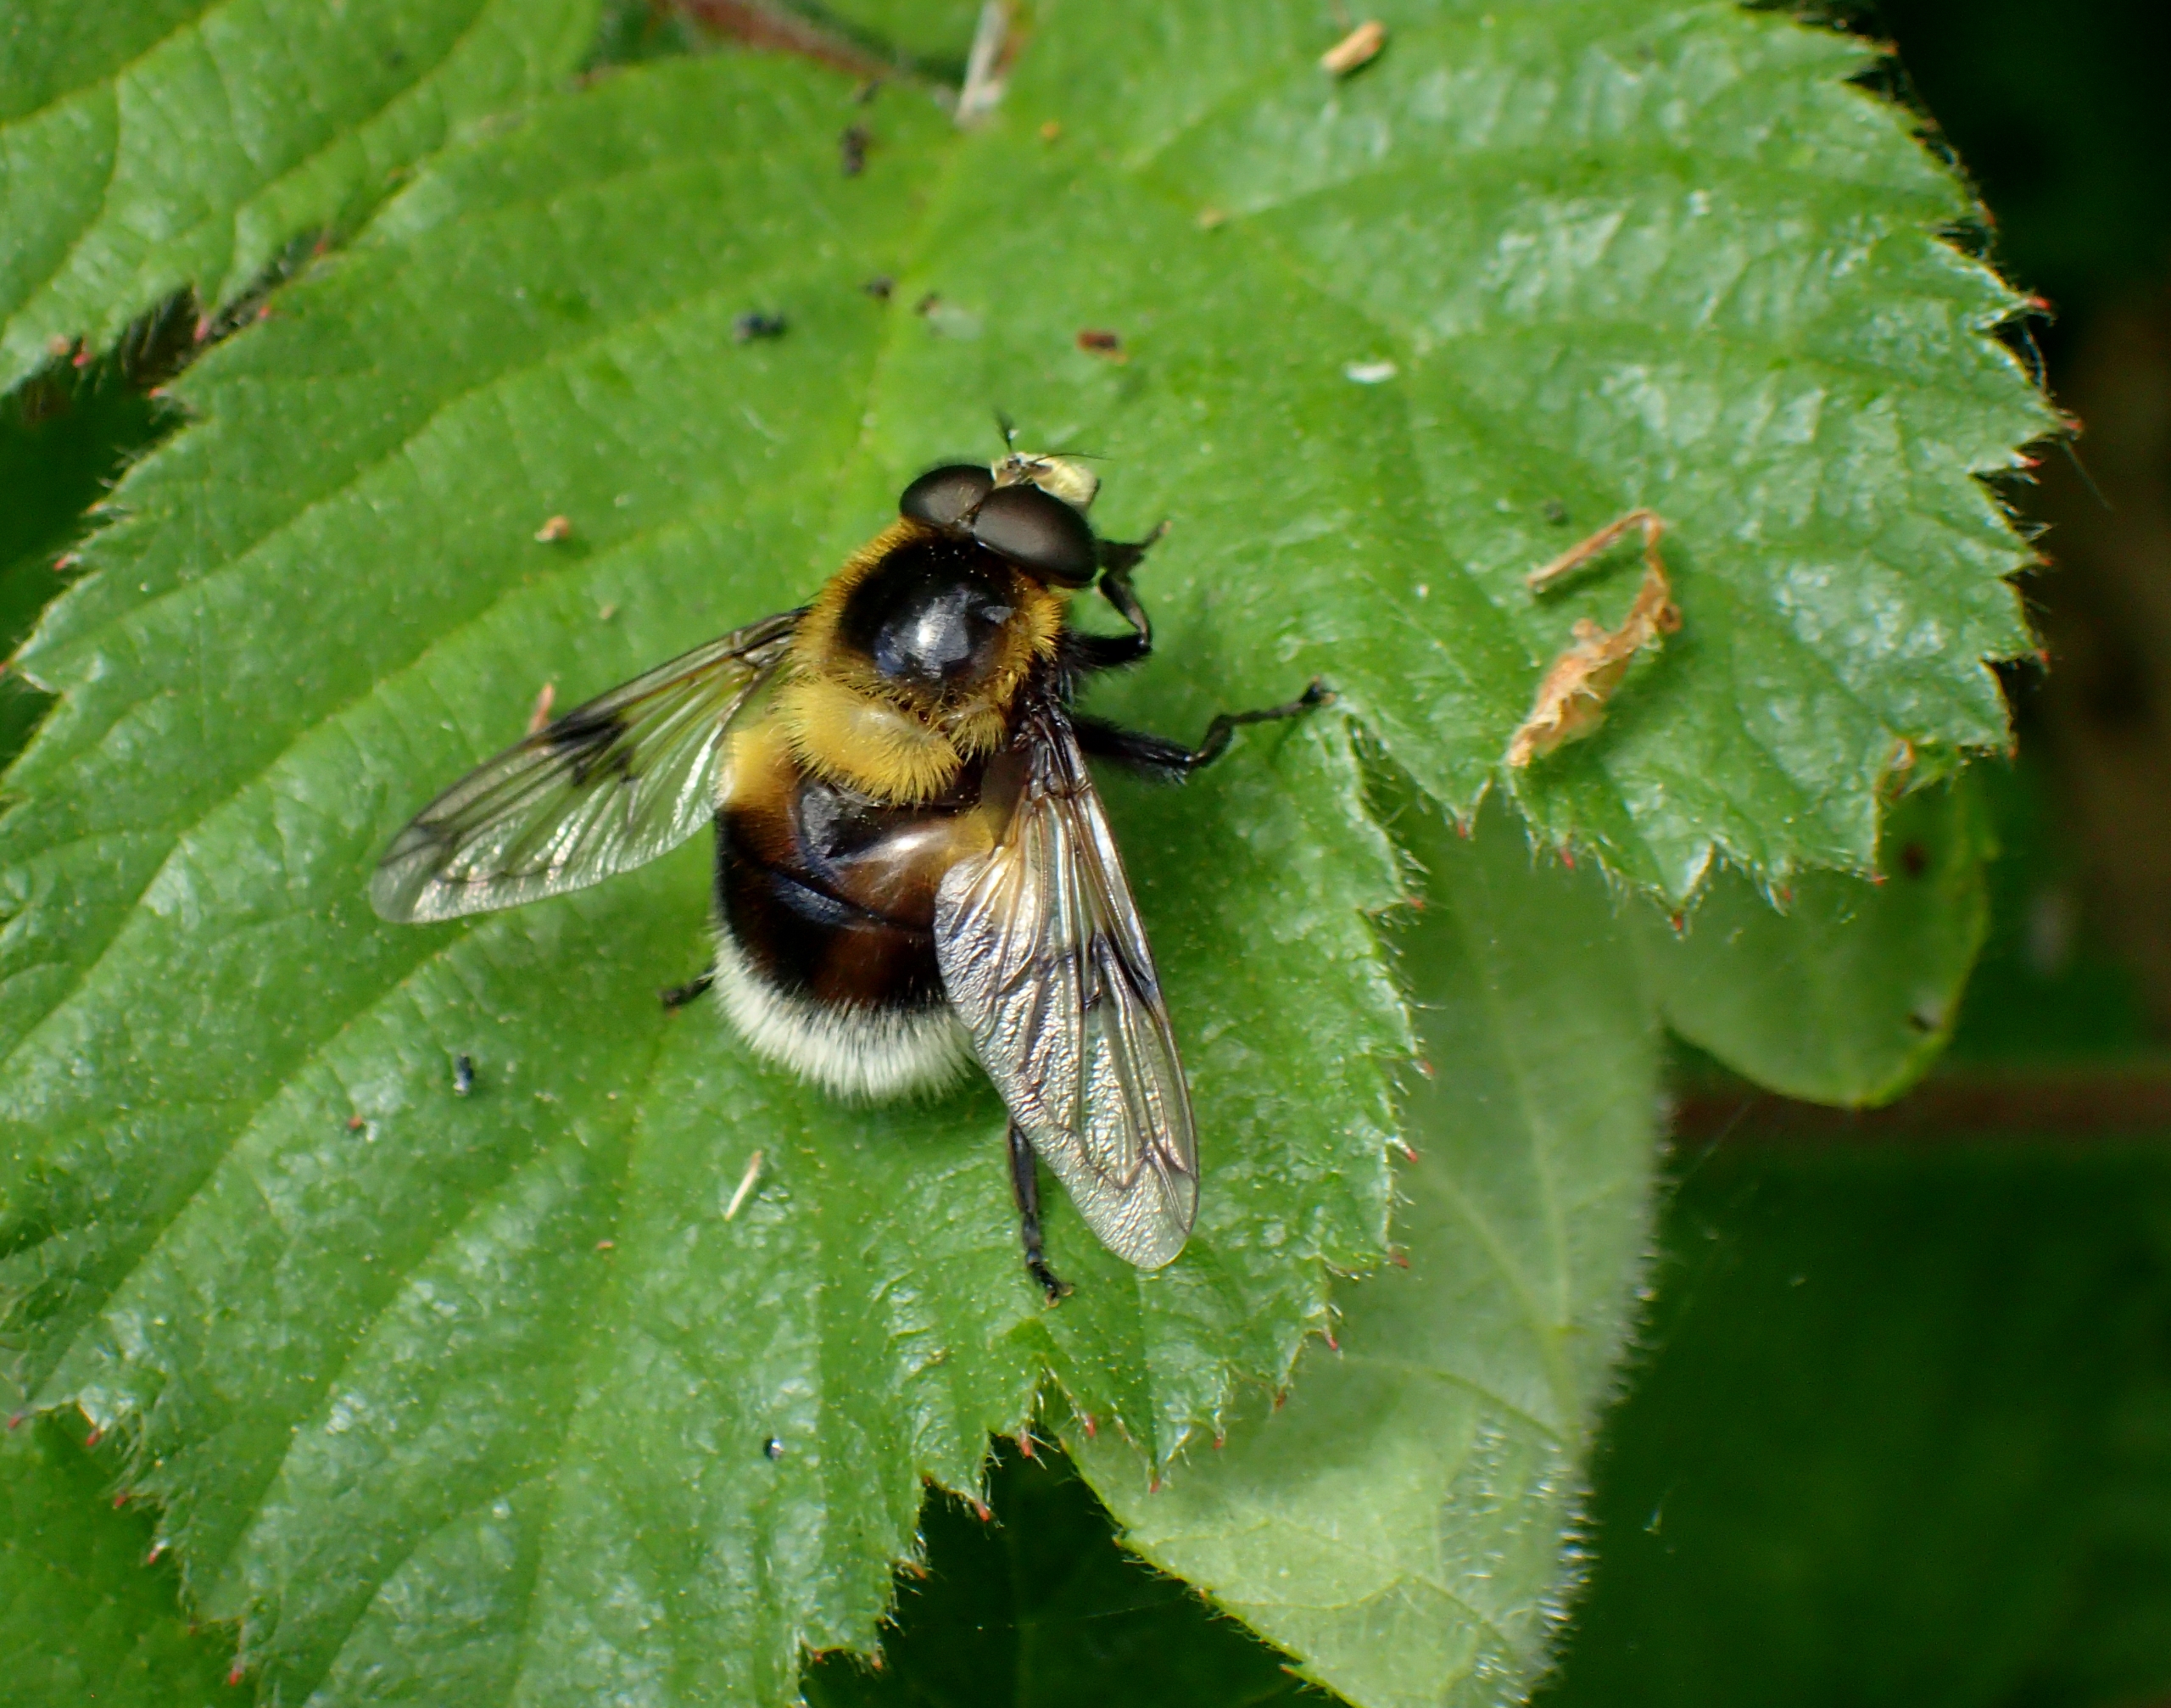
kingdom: Animalia
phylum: Arthropoda
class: Insecta
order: Diptera
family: Syrphidae
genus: Volucella
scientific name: Volucella bombylans
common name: Foranderlig humlesvirreflue
